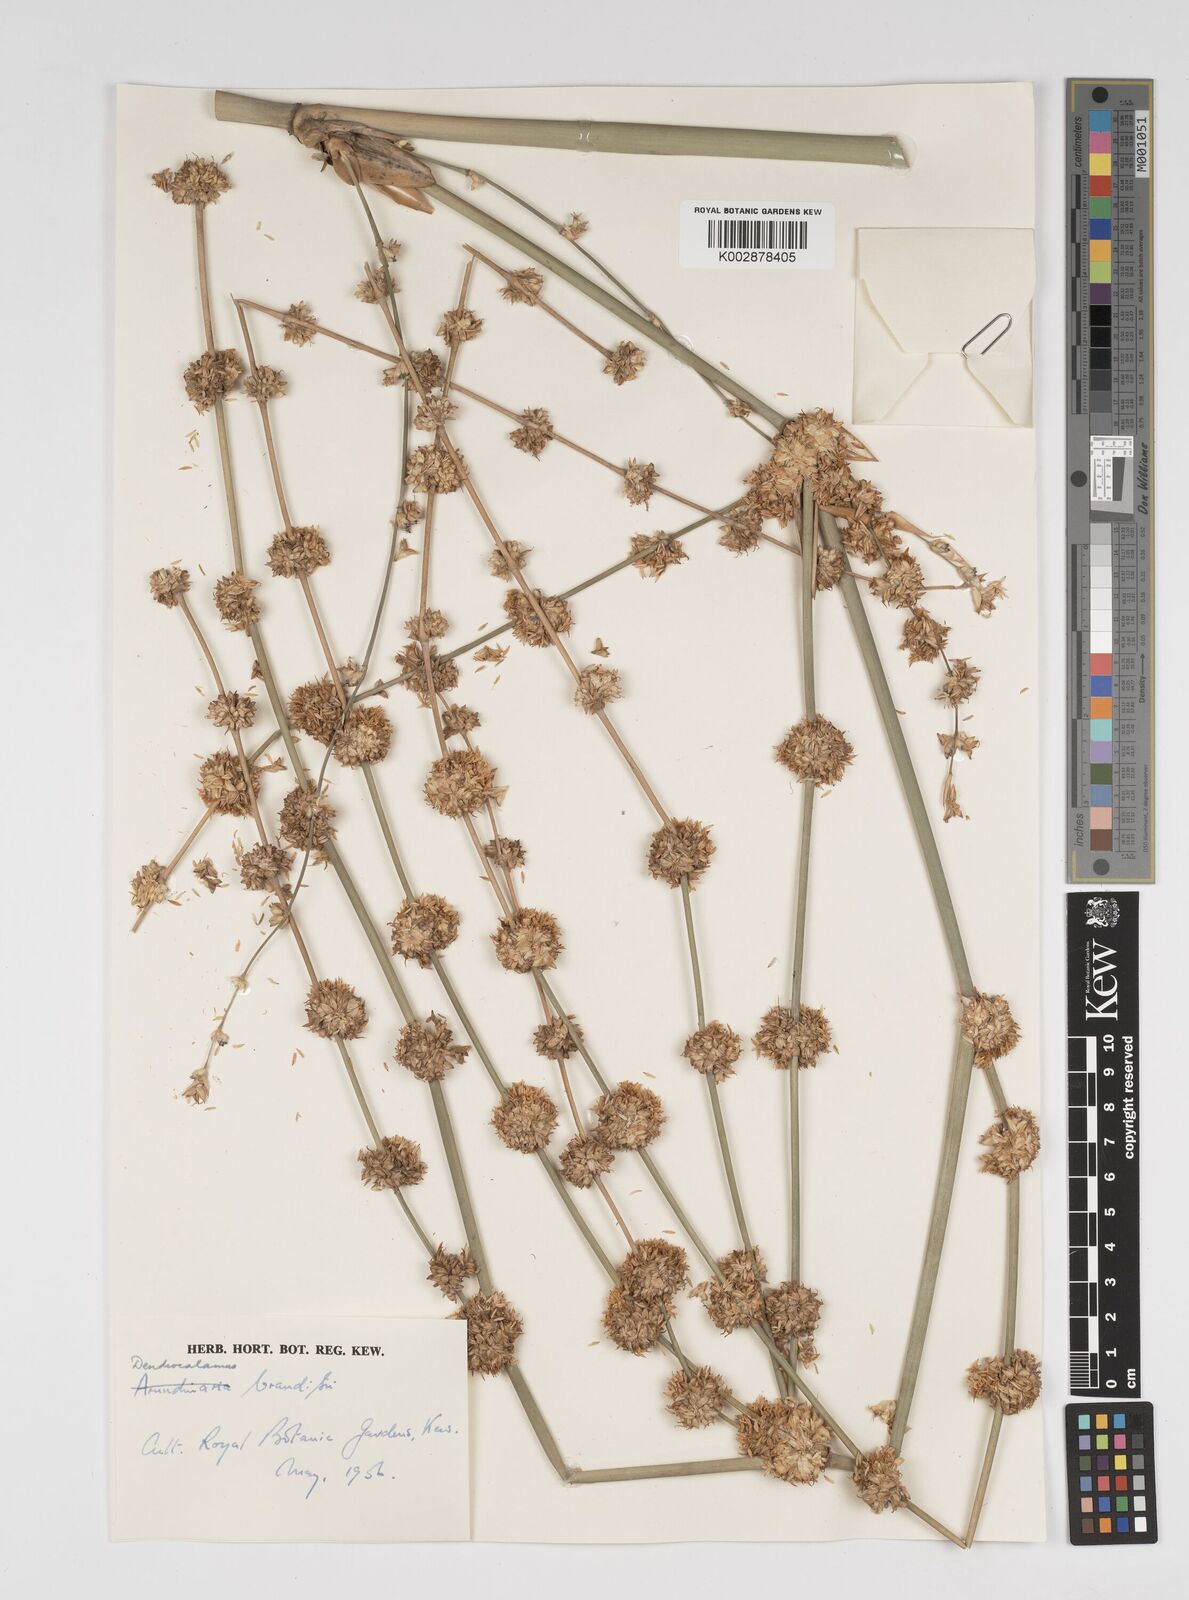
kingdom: Plantae
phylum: Tracheophyta
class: Liliopsida
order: Poales
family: Poaceae
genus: Dendrocalamus
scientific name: Dendrocalamus brandisii
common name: Velvetleaf bamboo
